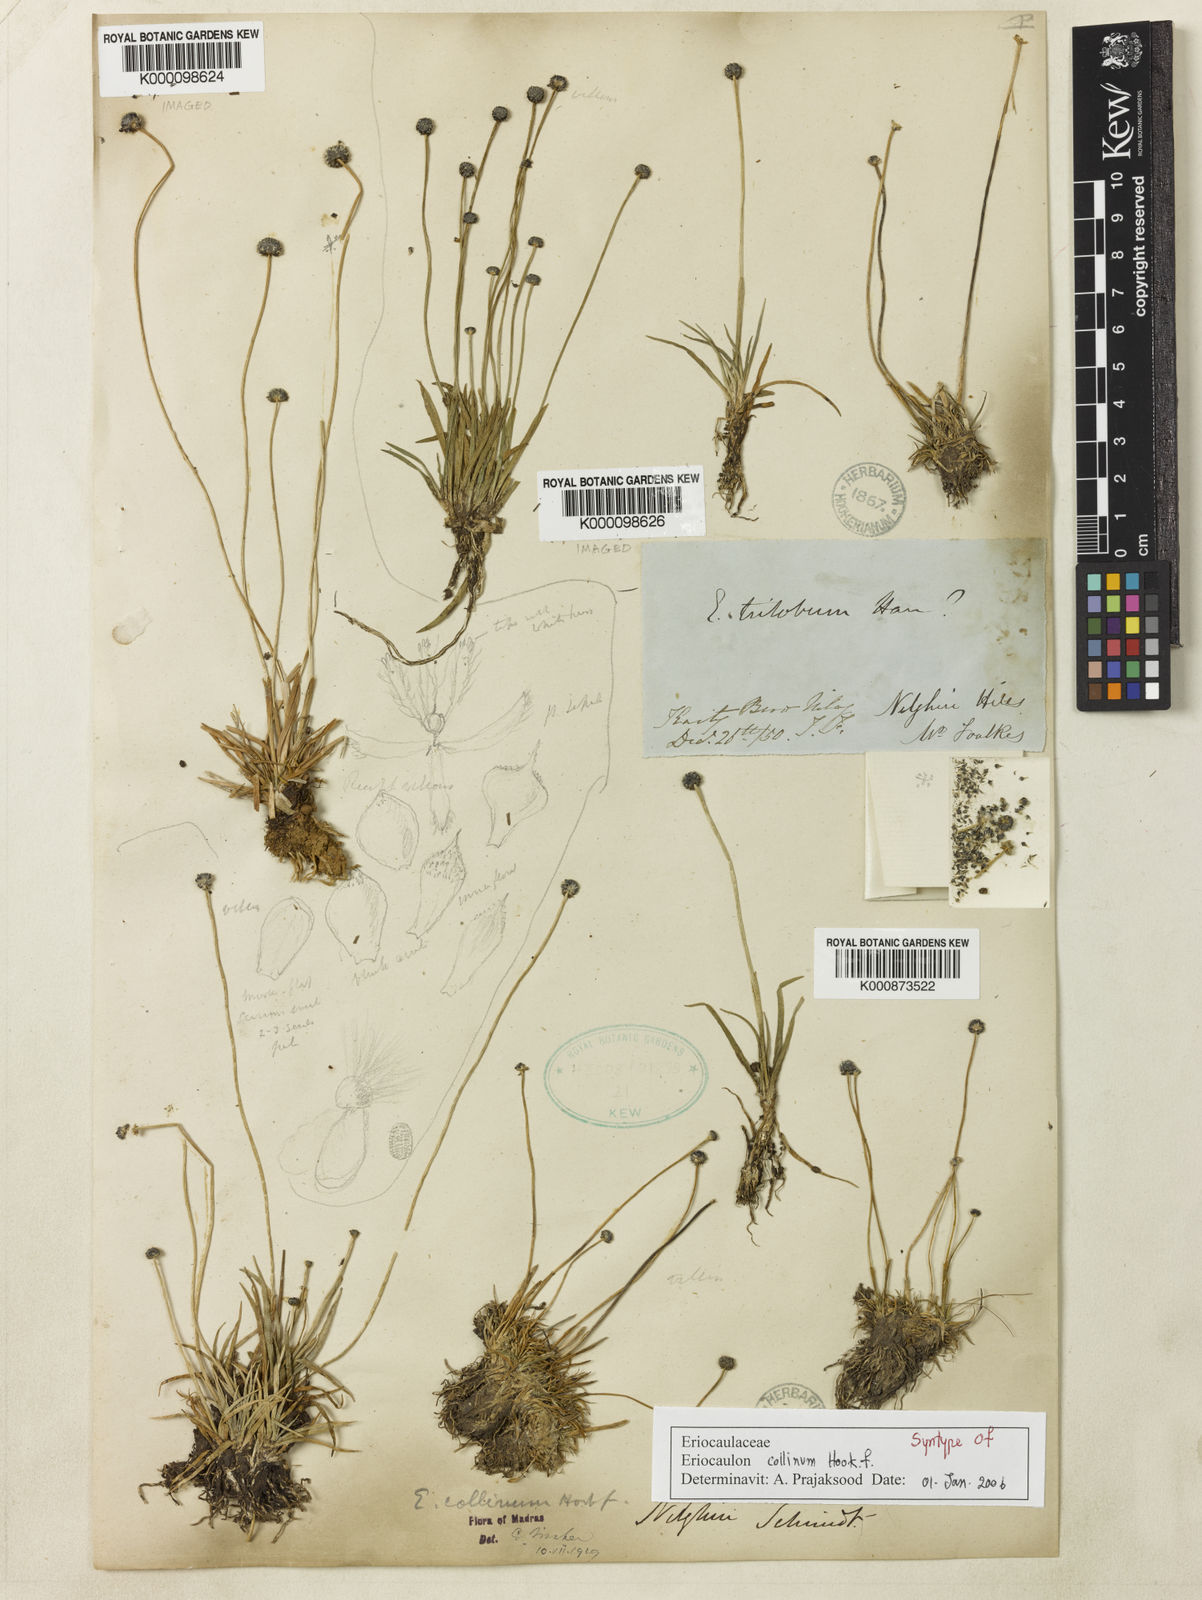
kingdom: Plantae
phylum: Tracheophyta
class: Liliopsida
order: Poales
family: Eriocaulaceae
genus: Eriocaulon
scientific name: Eriocaulon odoratum
